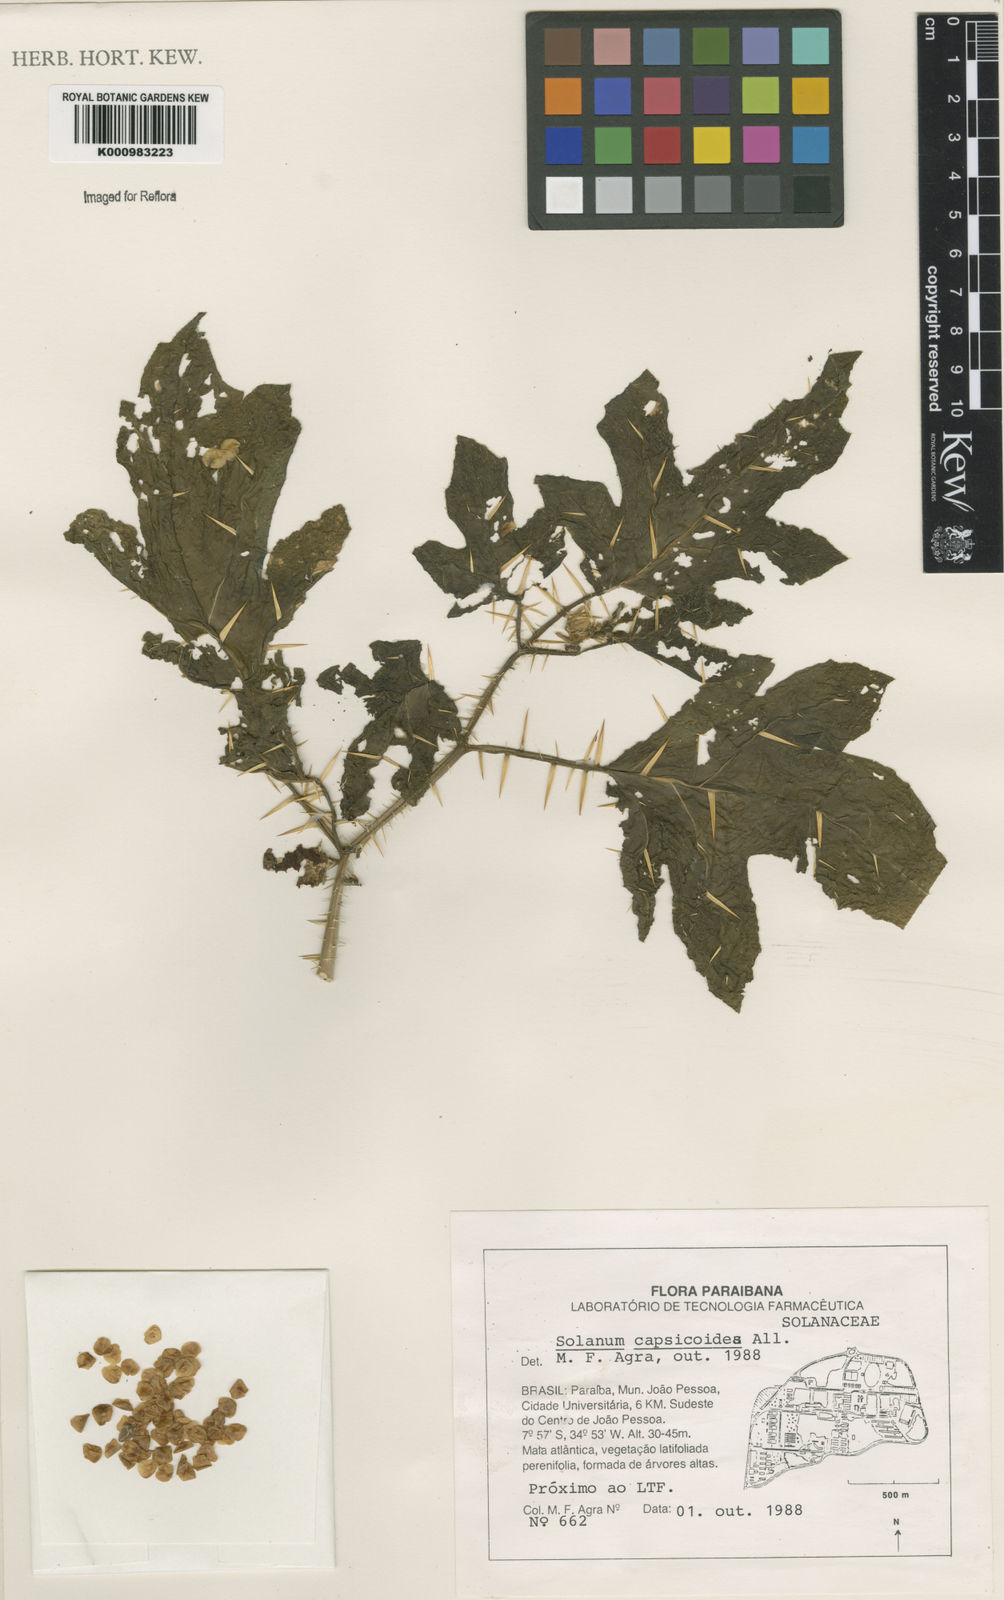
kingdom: Plantae
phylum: Tracheophyta
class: Magnoliopsida
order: Solanales
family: Solanaceae
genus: Solanum
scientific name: Solanum capsicoides
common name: Cockroach berry
